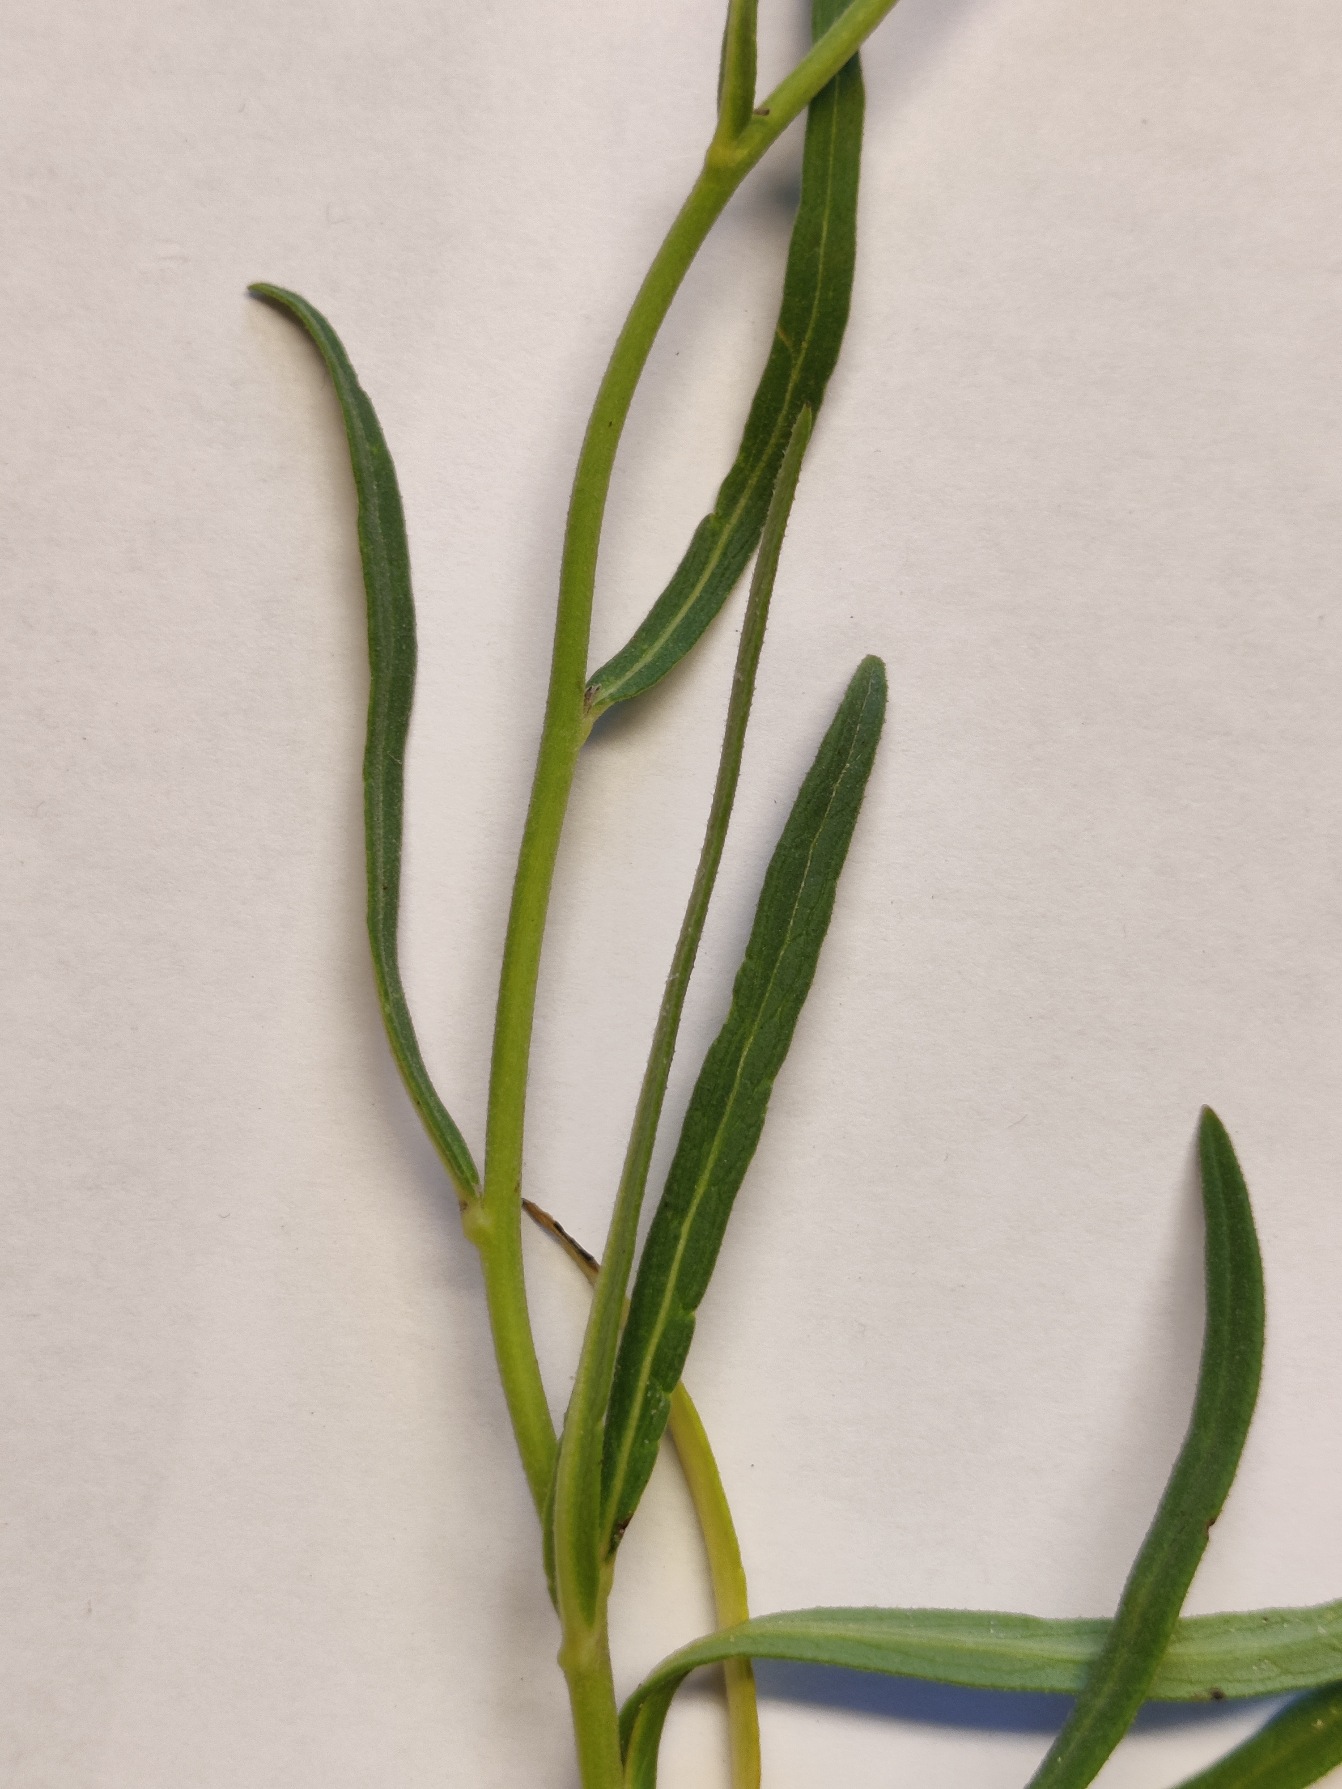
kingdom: Plantae
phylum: Tracheophyta
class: Magnoliopsida
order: Asterales
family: Asteraceae
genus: Hieracium
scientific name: Hieracium umbellatum
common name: Smalbladet høgeurt
